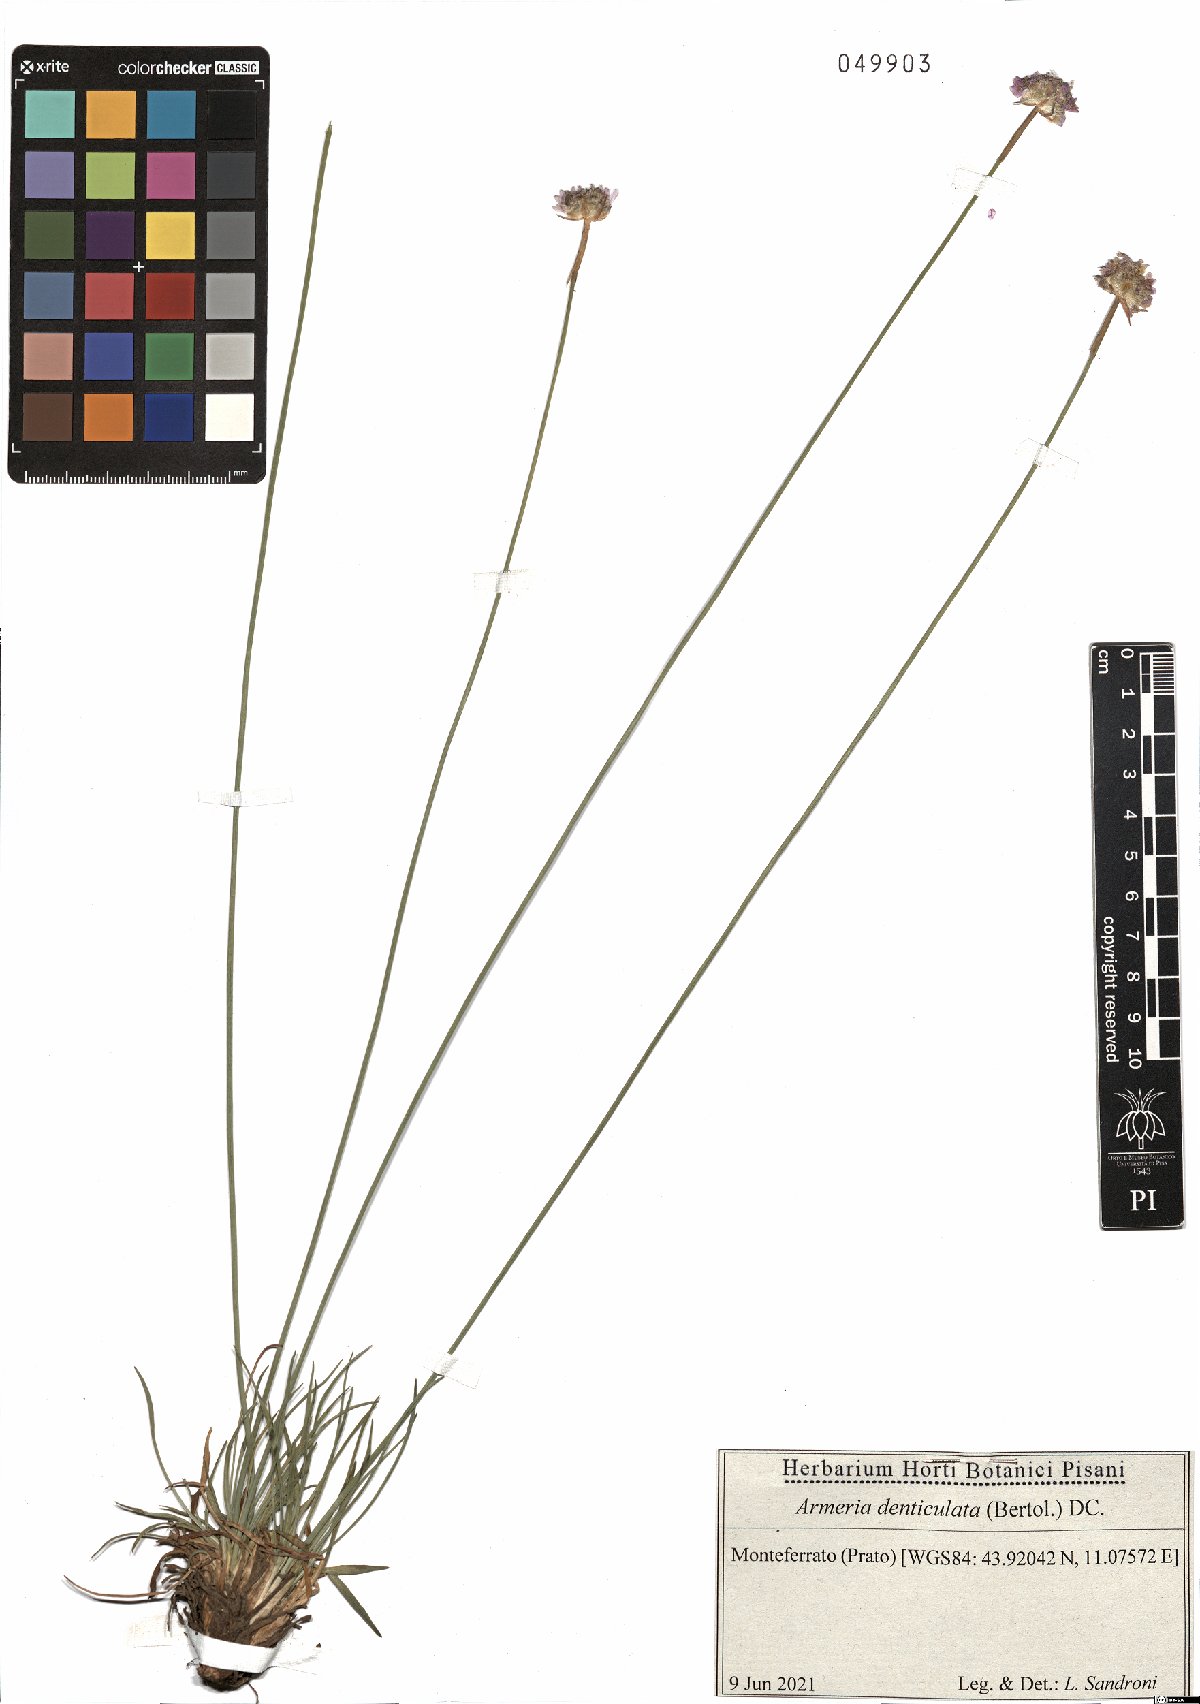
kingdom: Plantae
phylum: Tracheophyta
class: Magnoliopsida
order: Caryophyllales
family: Plumbaginaceae
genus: Armeria
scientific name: Armeria denticulata
